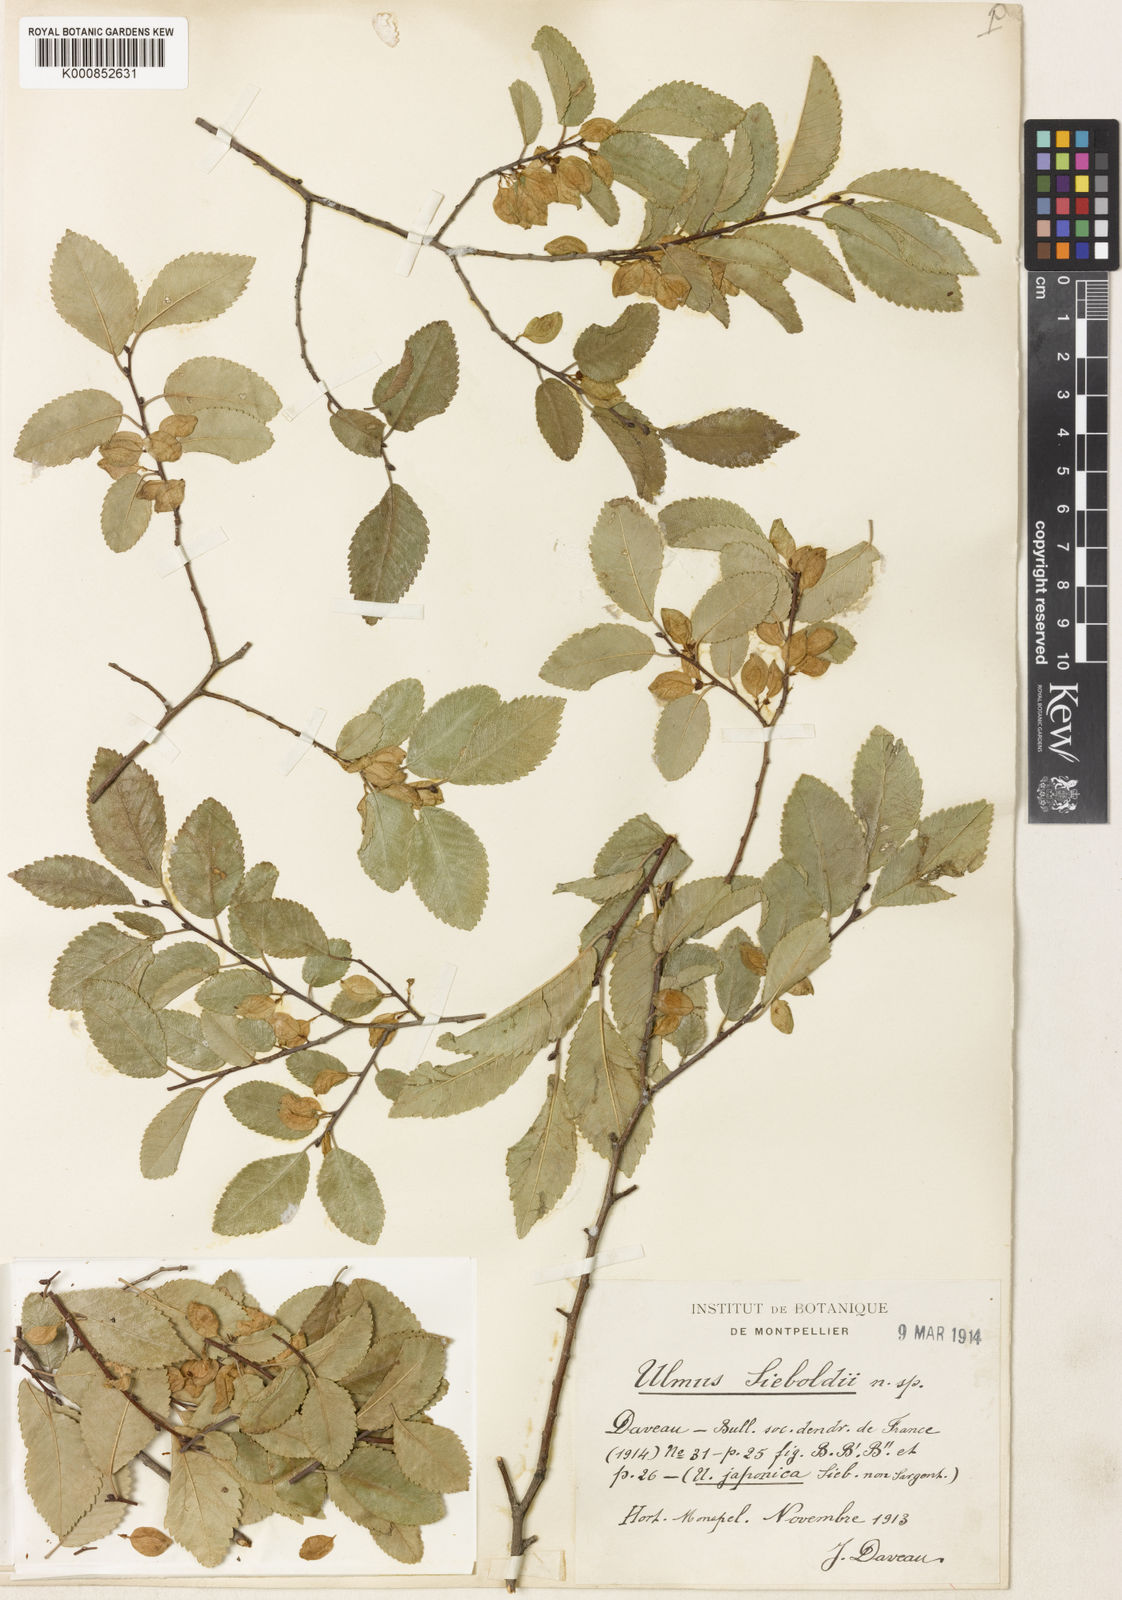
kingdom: Plantae
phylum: Tracheophyta
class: Magnoliopsida
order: Rosales
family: Ulmaceae
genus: Ulmus
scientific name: Ulmus parvifolia
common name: Chinese elm
